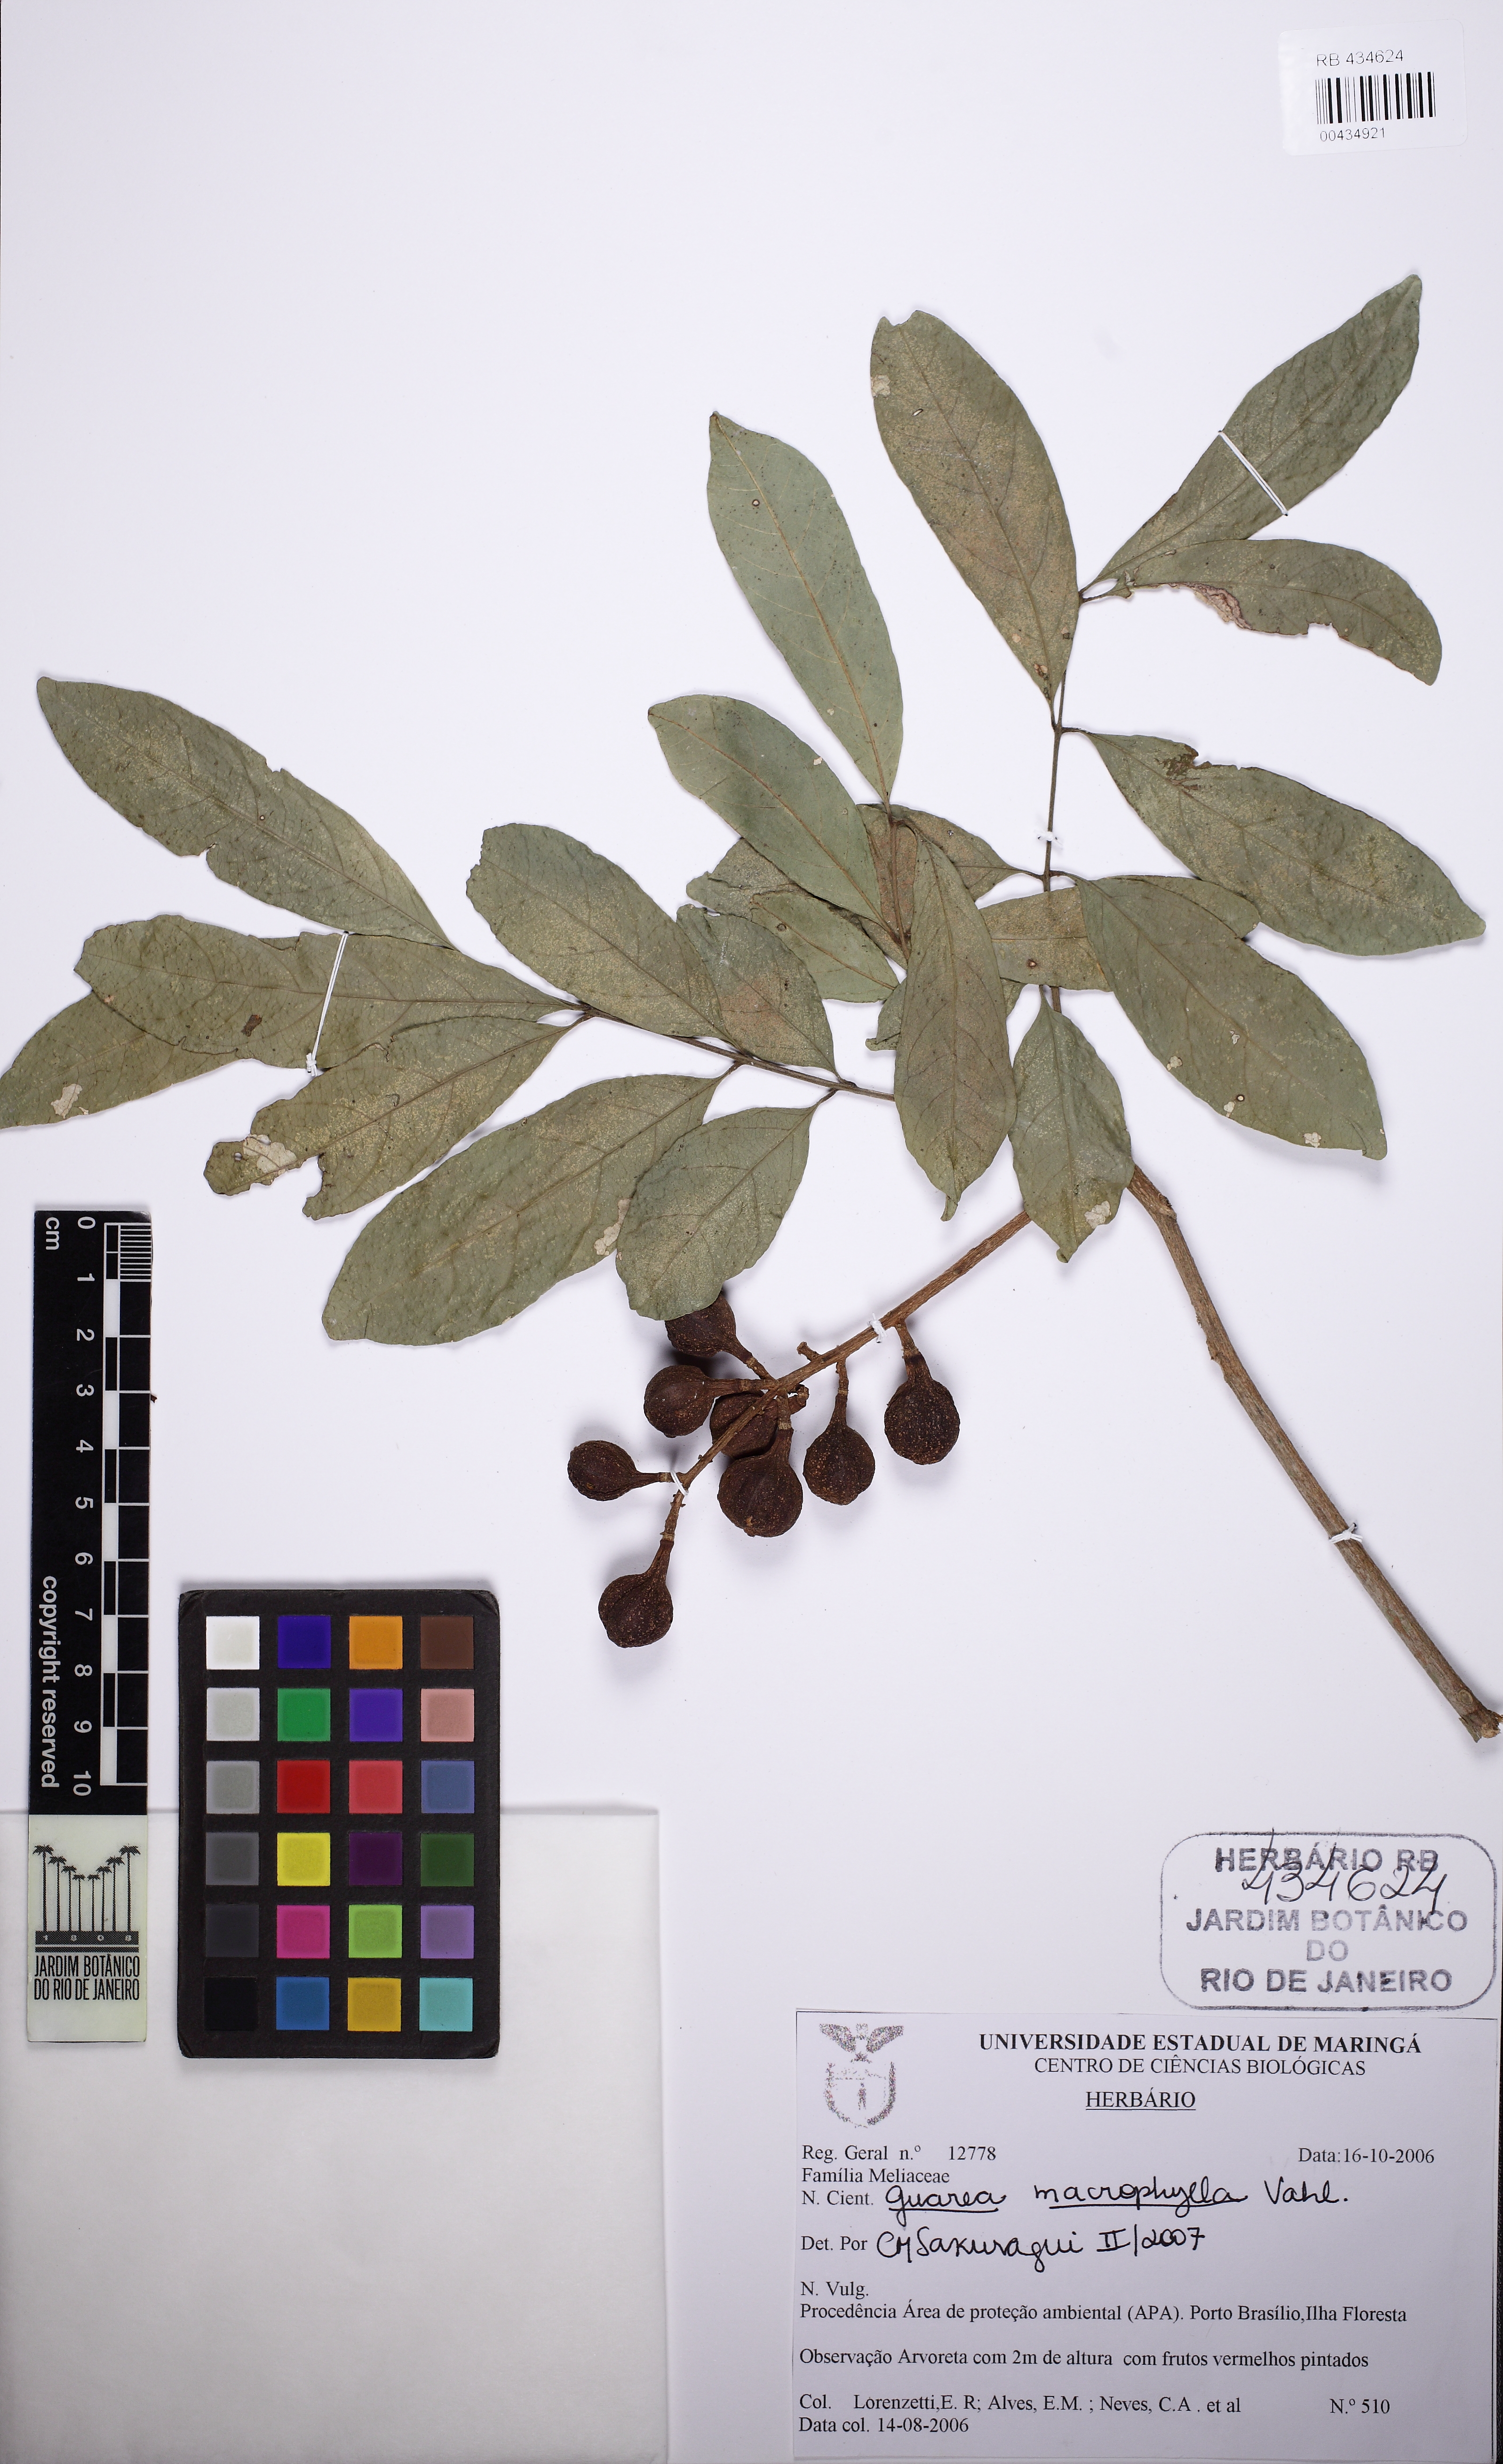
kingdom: Plantae
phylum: Tracheophyta
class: Magnoliopsida
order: Sapindales
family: Meliaceae
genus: Guarea
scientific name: Guarea macrophylla
